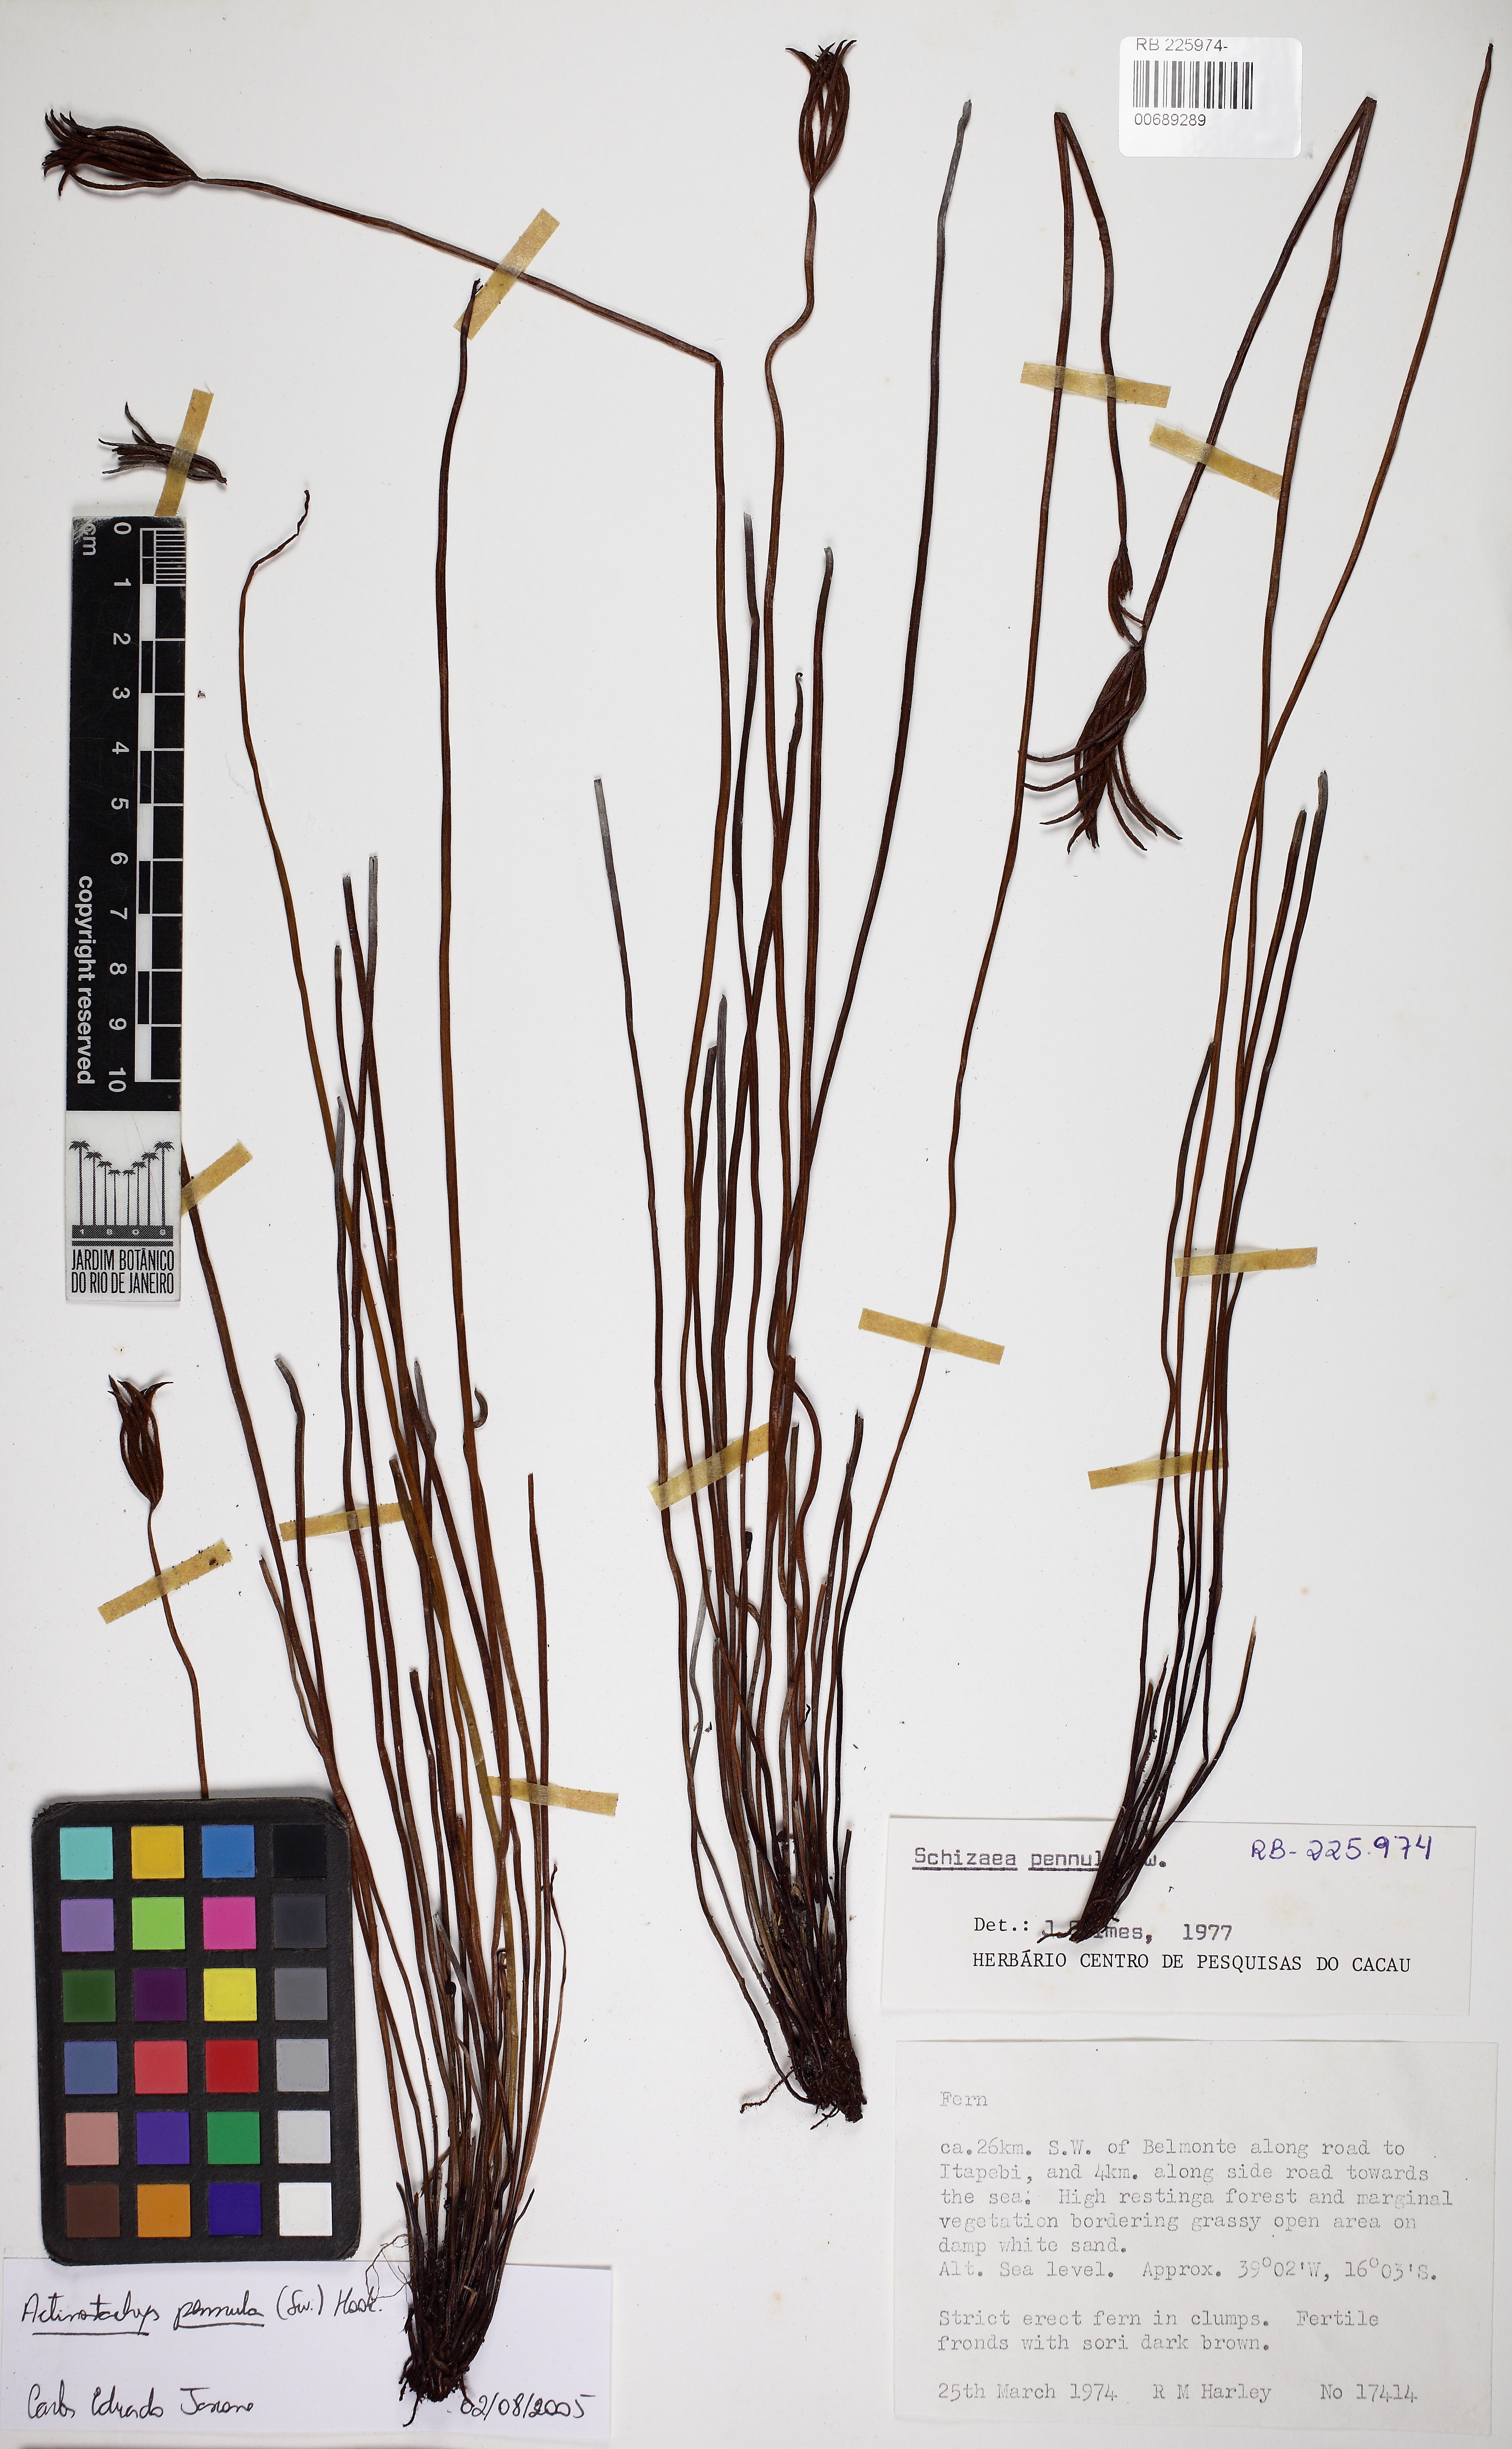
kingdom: Plantae
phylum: Tracheophyta
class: Polypodiopsida
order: Schizaeales
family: Schizaeaceae
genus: Actinostachys
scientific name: Actinostachys pennula
